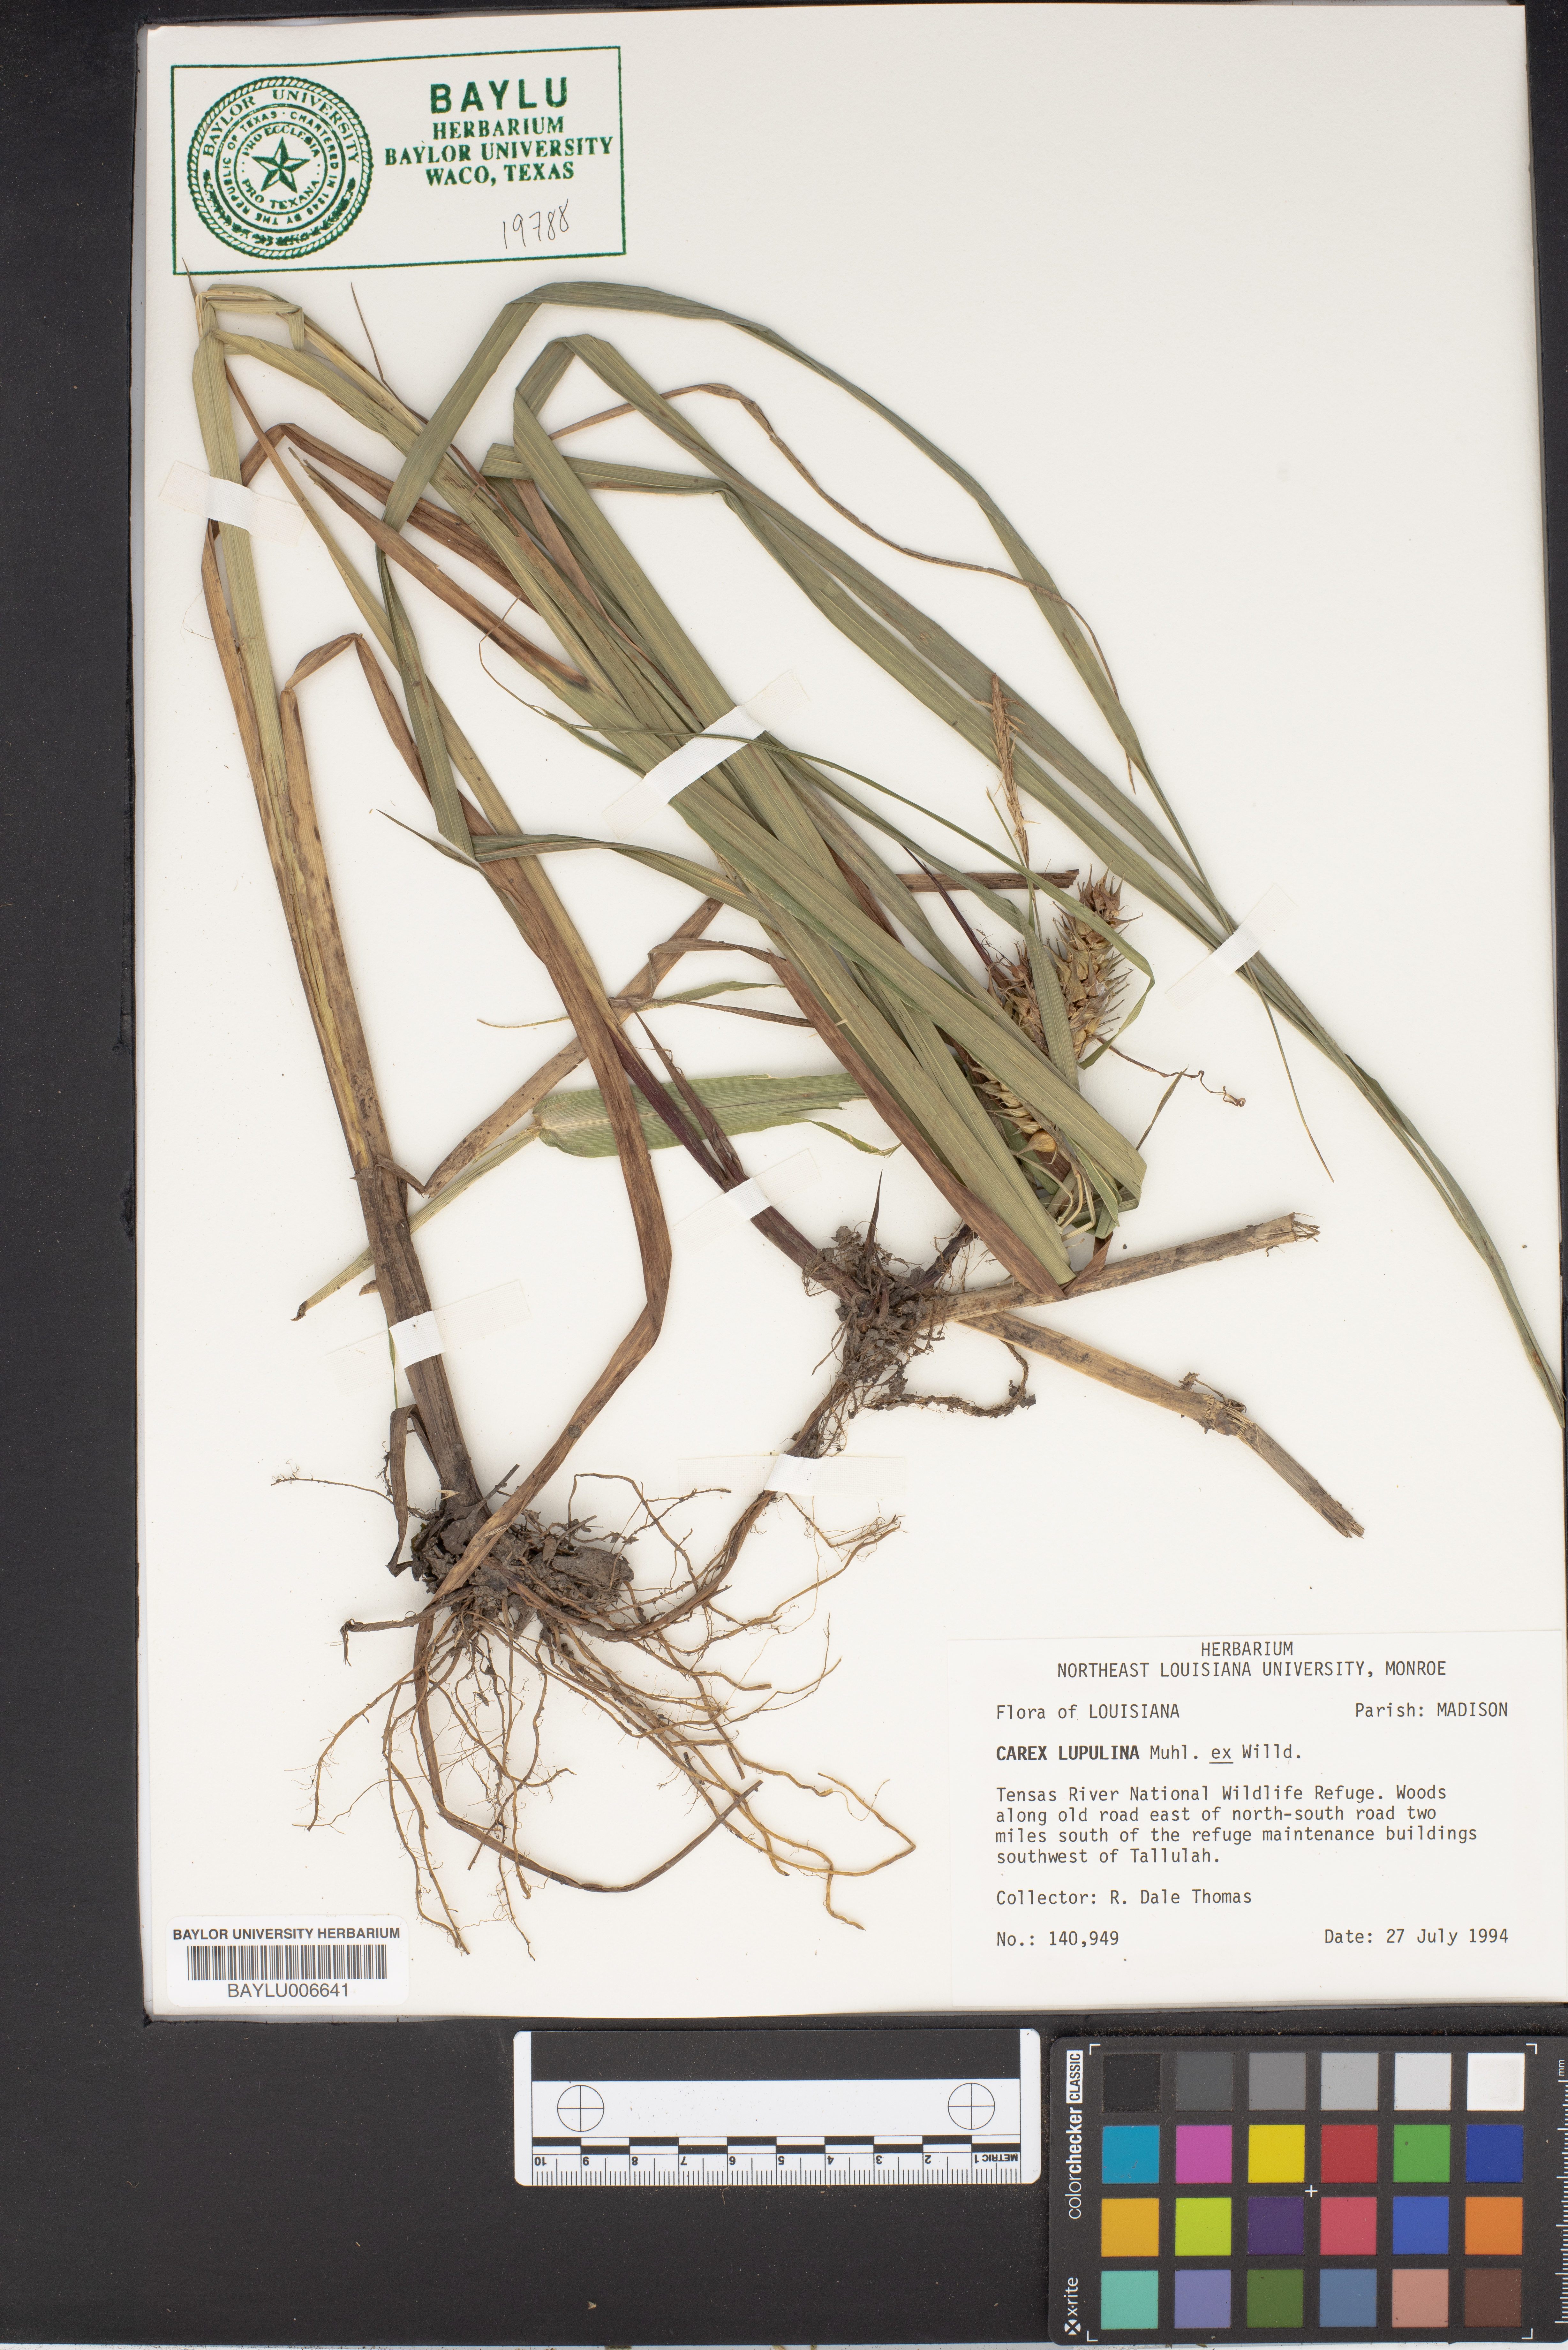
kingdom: Plantae
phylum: Tracheophyta
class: Liliopsida
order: Poales
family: Cyperaceae
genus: Carex
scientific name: Carex lupulina
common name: Hop sedge
